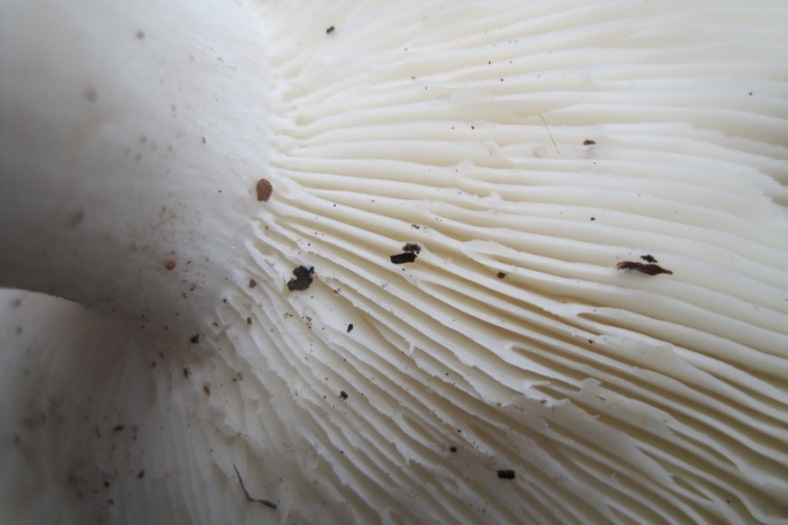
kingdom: Fungi
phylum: Basidiomycota
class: Agaricomycetes
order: Russulales
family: Russulaceae
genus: Russula
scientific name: Russula heterophylla
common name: gaffelbladet skørhat
